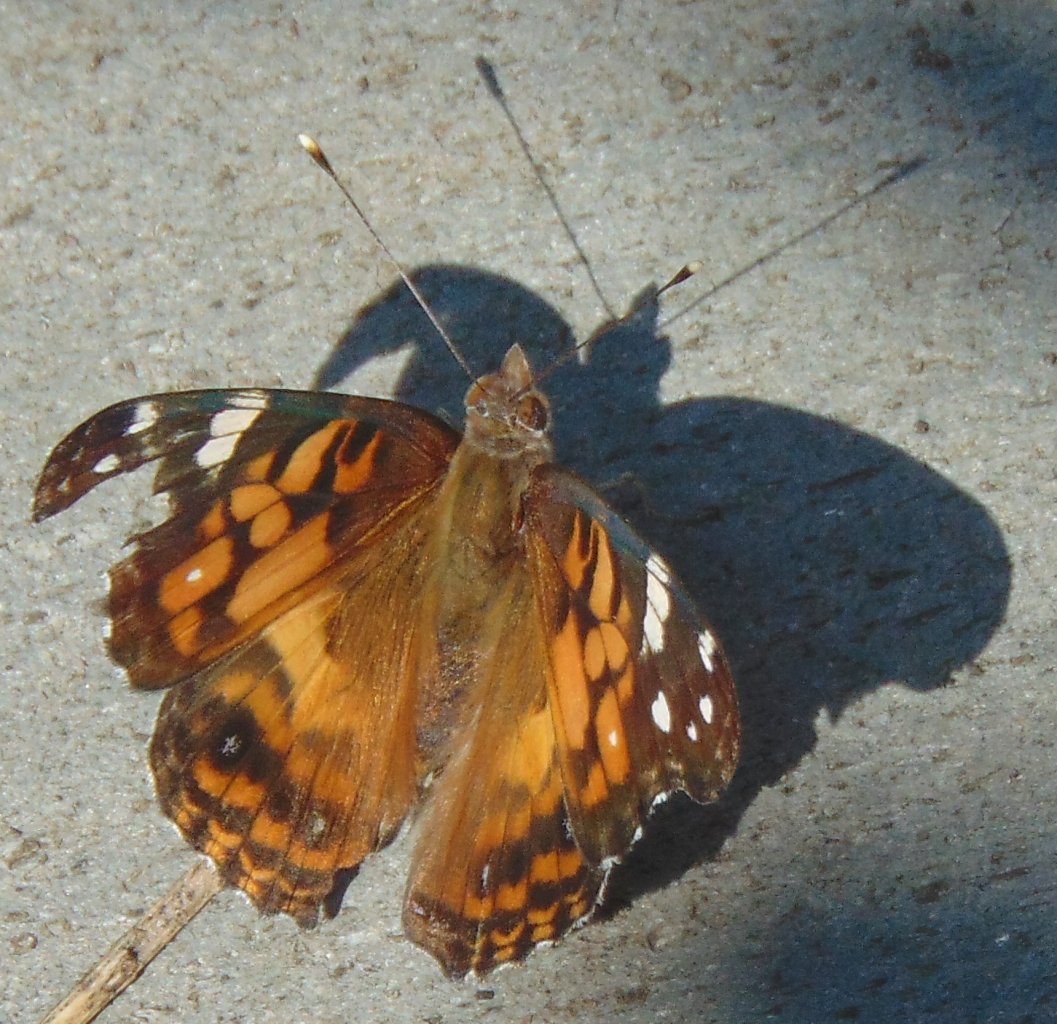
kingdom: Animalia
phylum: Arthropoda
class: Insecta
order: Lepidoptera
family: Nymphalidae
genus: Vanessa
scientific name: Vanessa virginiensis
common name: American Lady
